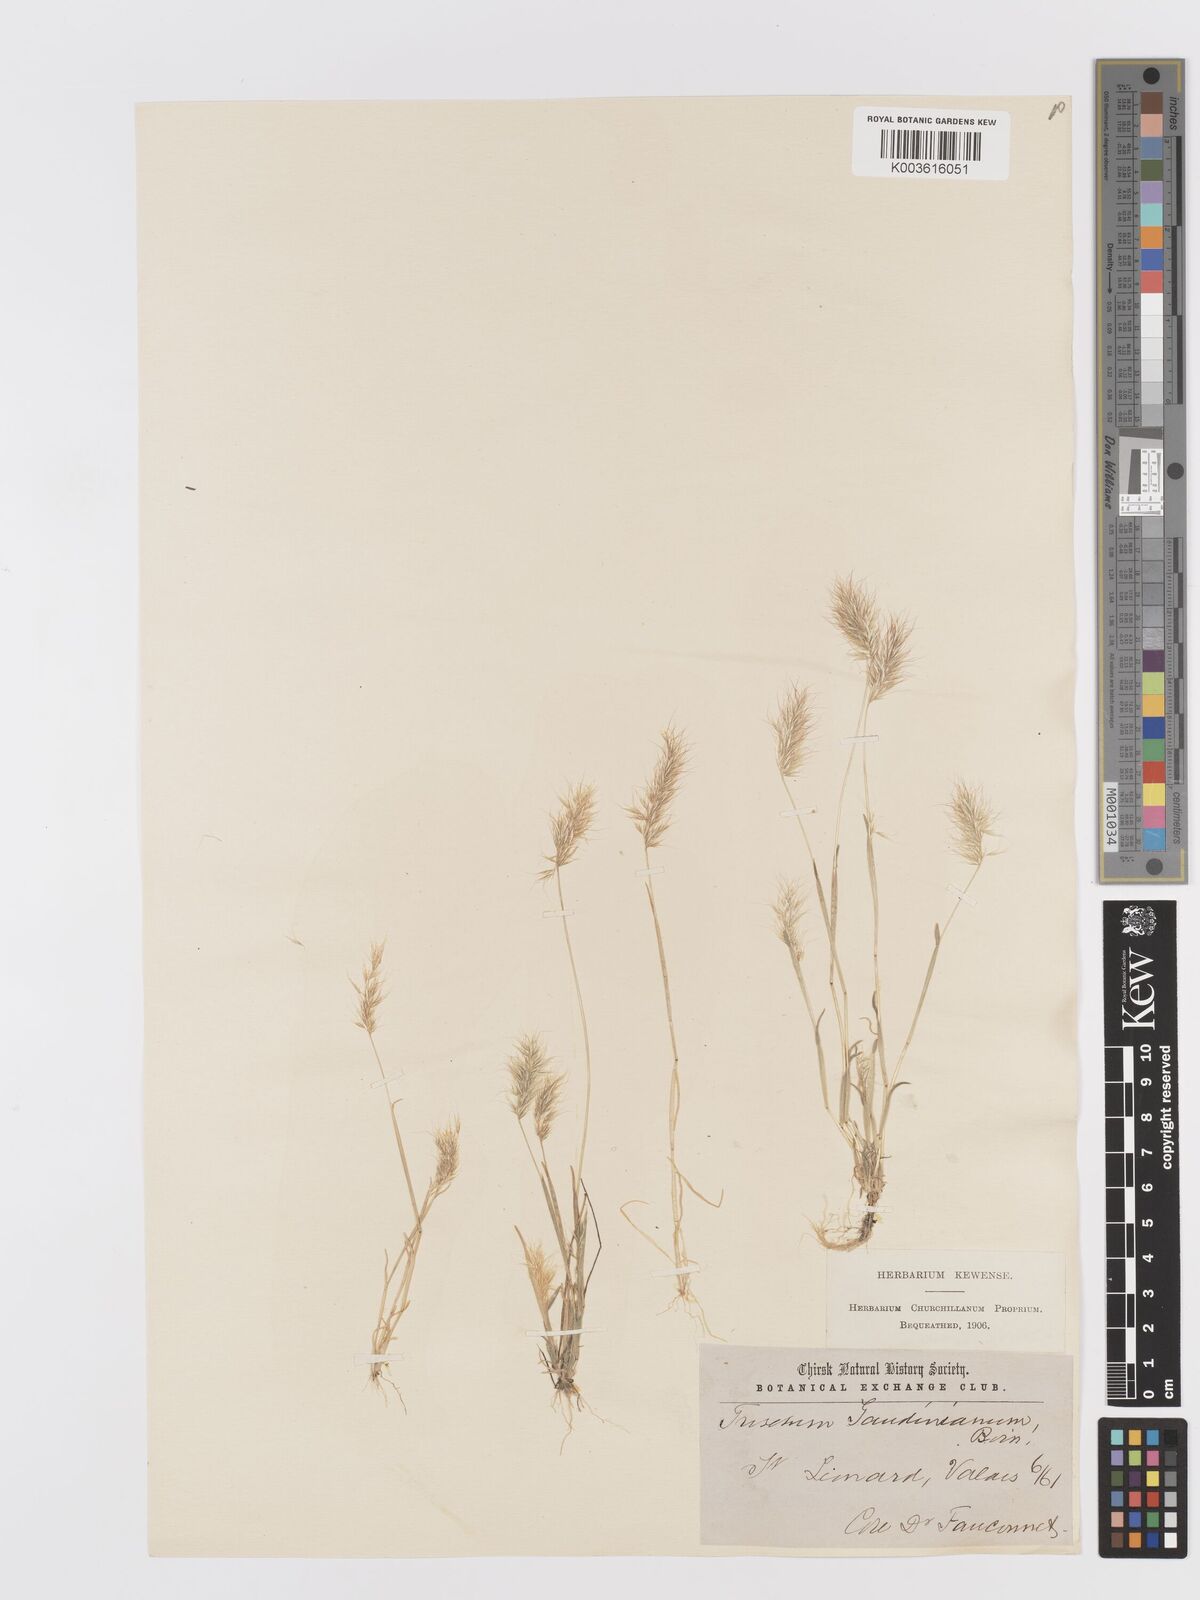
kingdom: Plantae
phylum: Tracheophyta
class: Liliopsida
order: Poales
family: Poaceae
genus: Trisetaria
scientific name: Trisetaria loeflingiana
